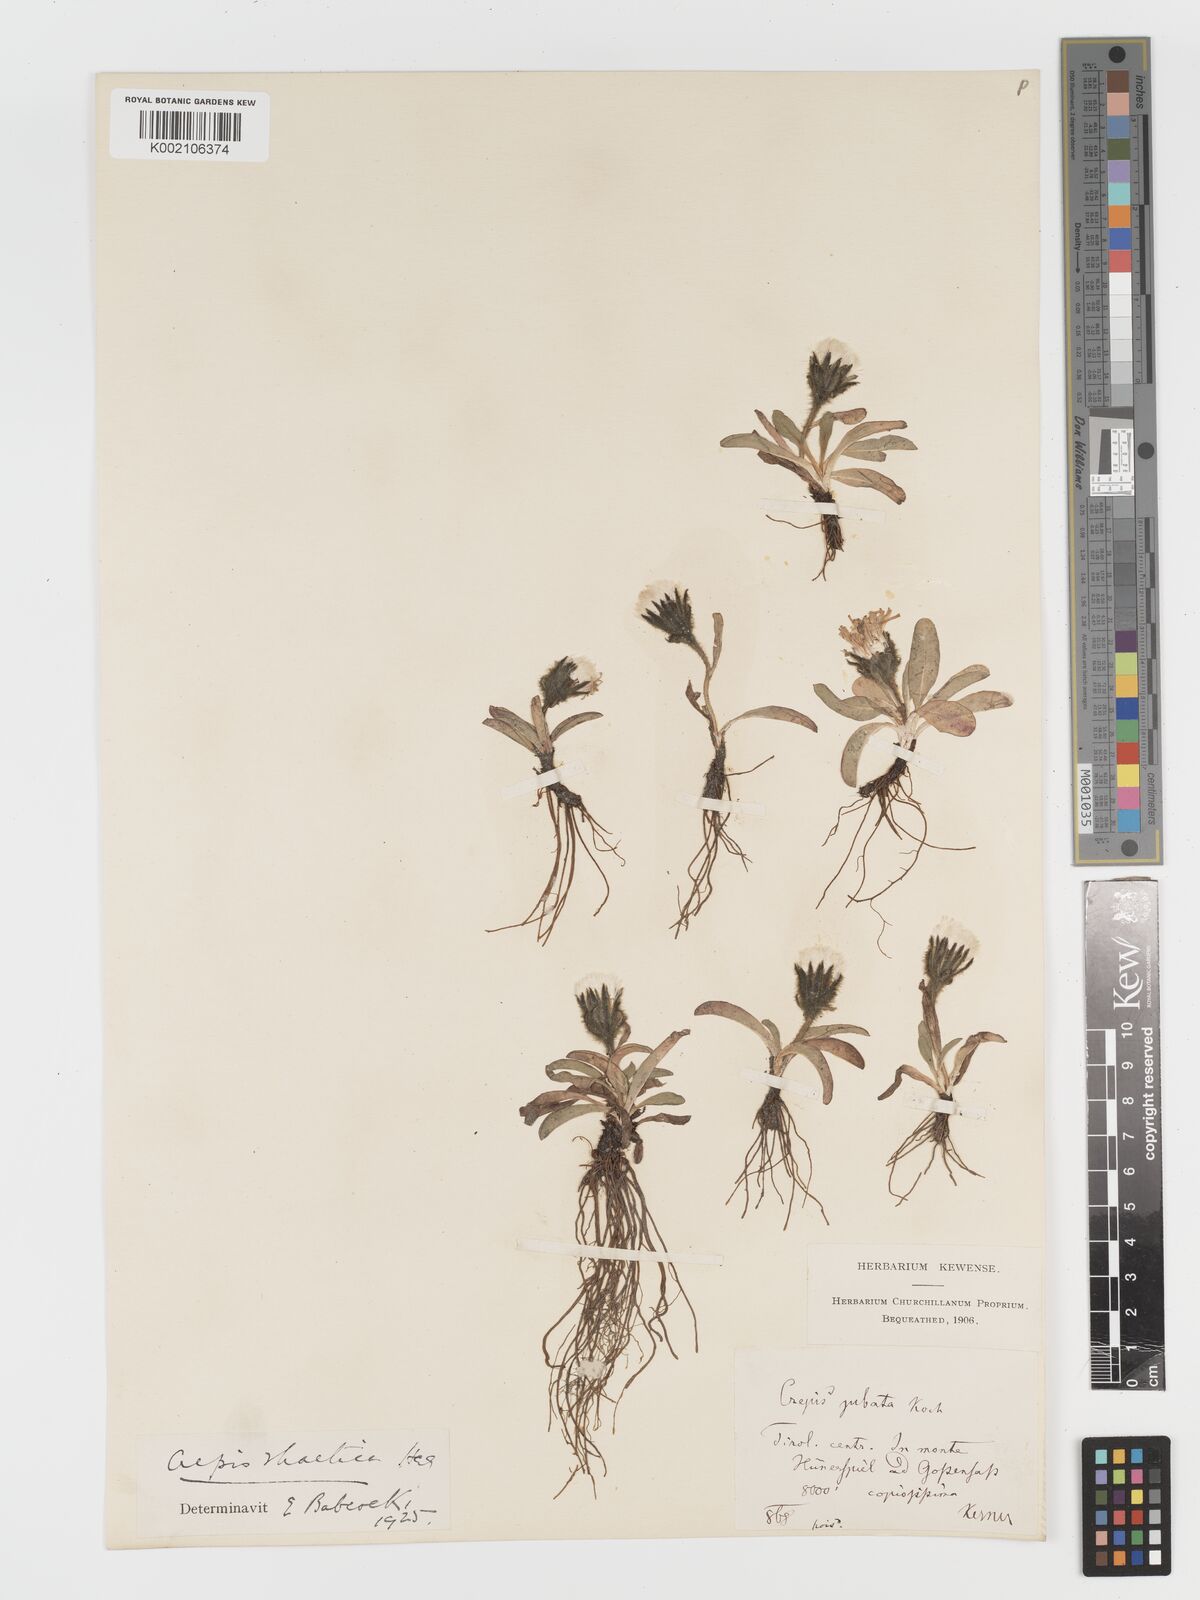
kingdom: Plantae
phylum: Tracheophyta
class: Magnoliopsida
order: Asterales
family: Asteraceae
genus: Crepis
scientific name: Crepis
